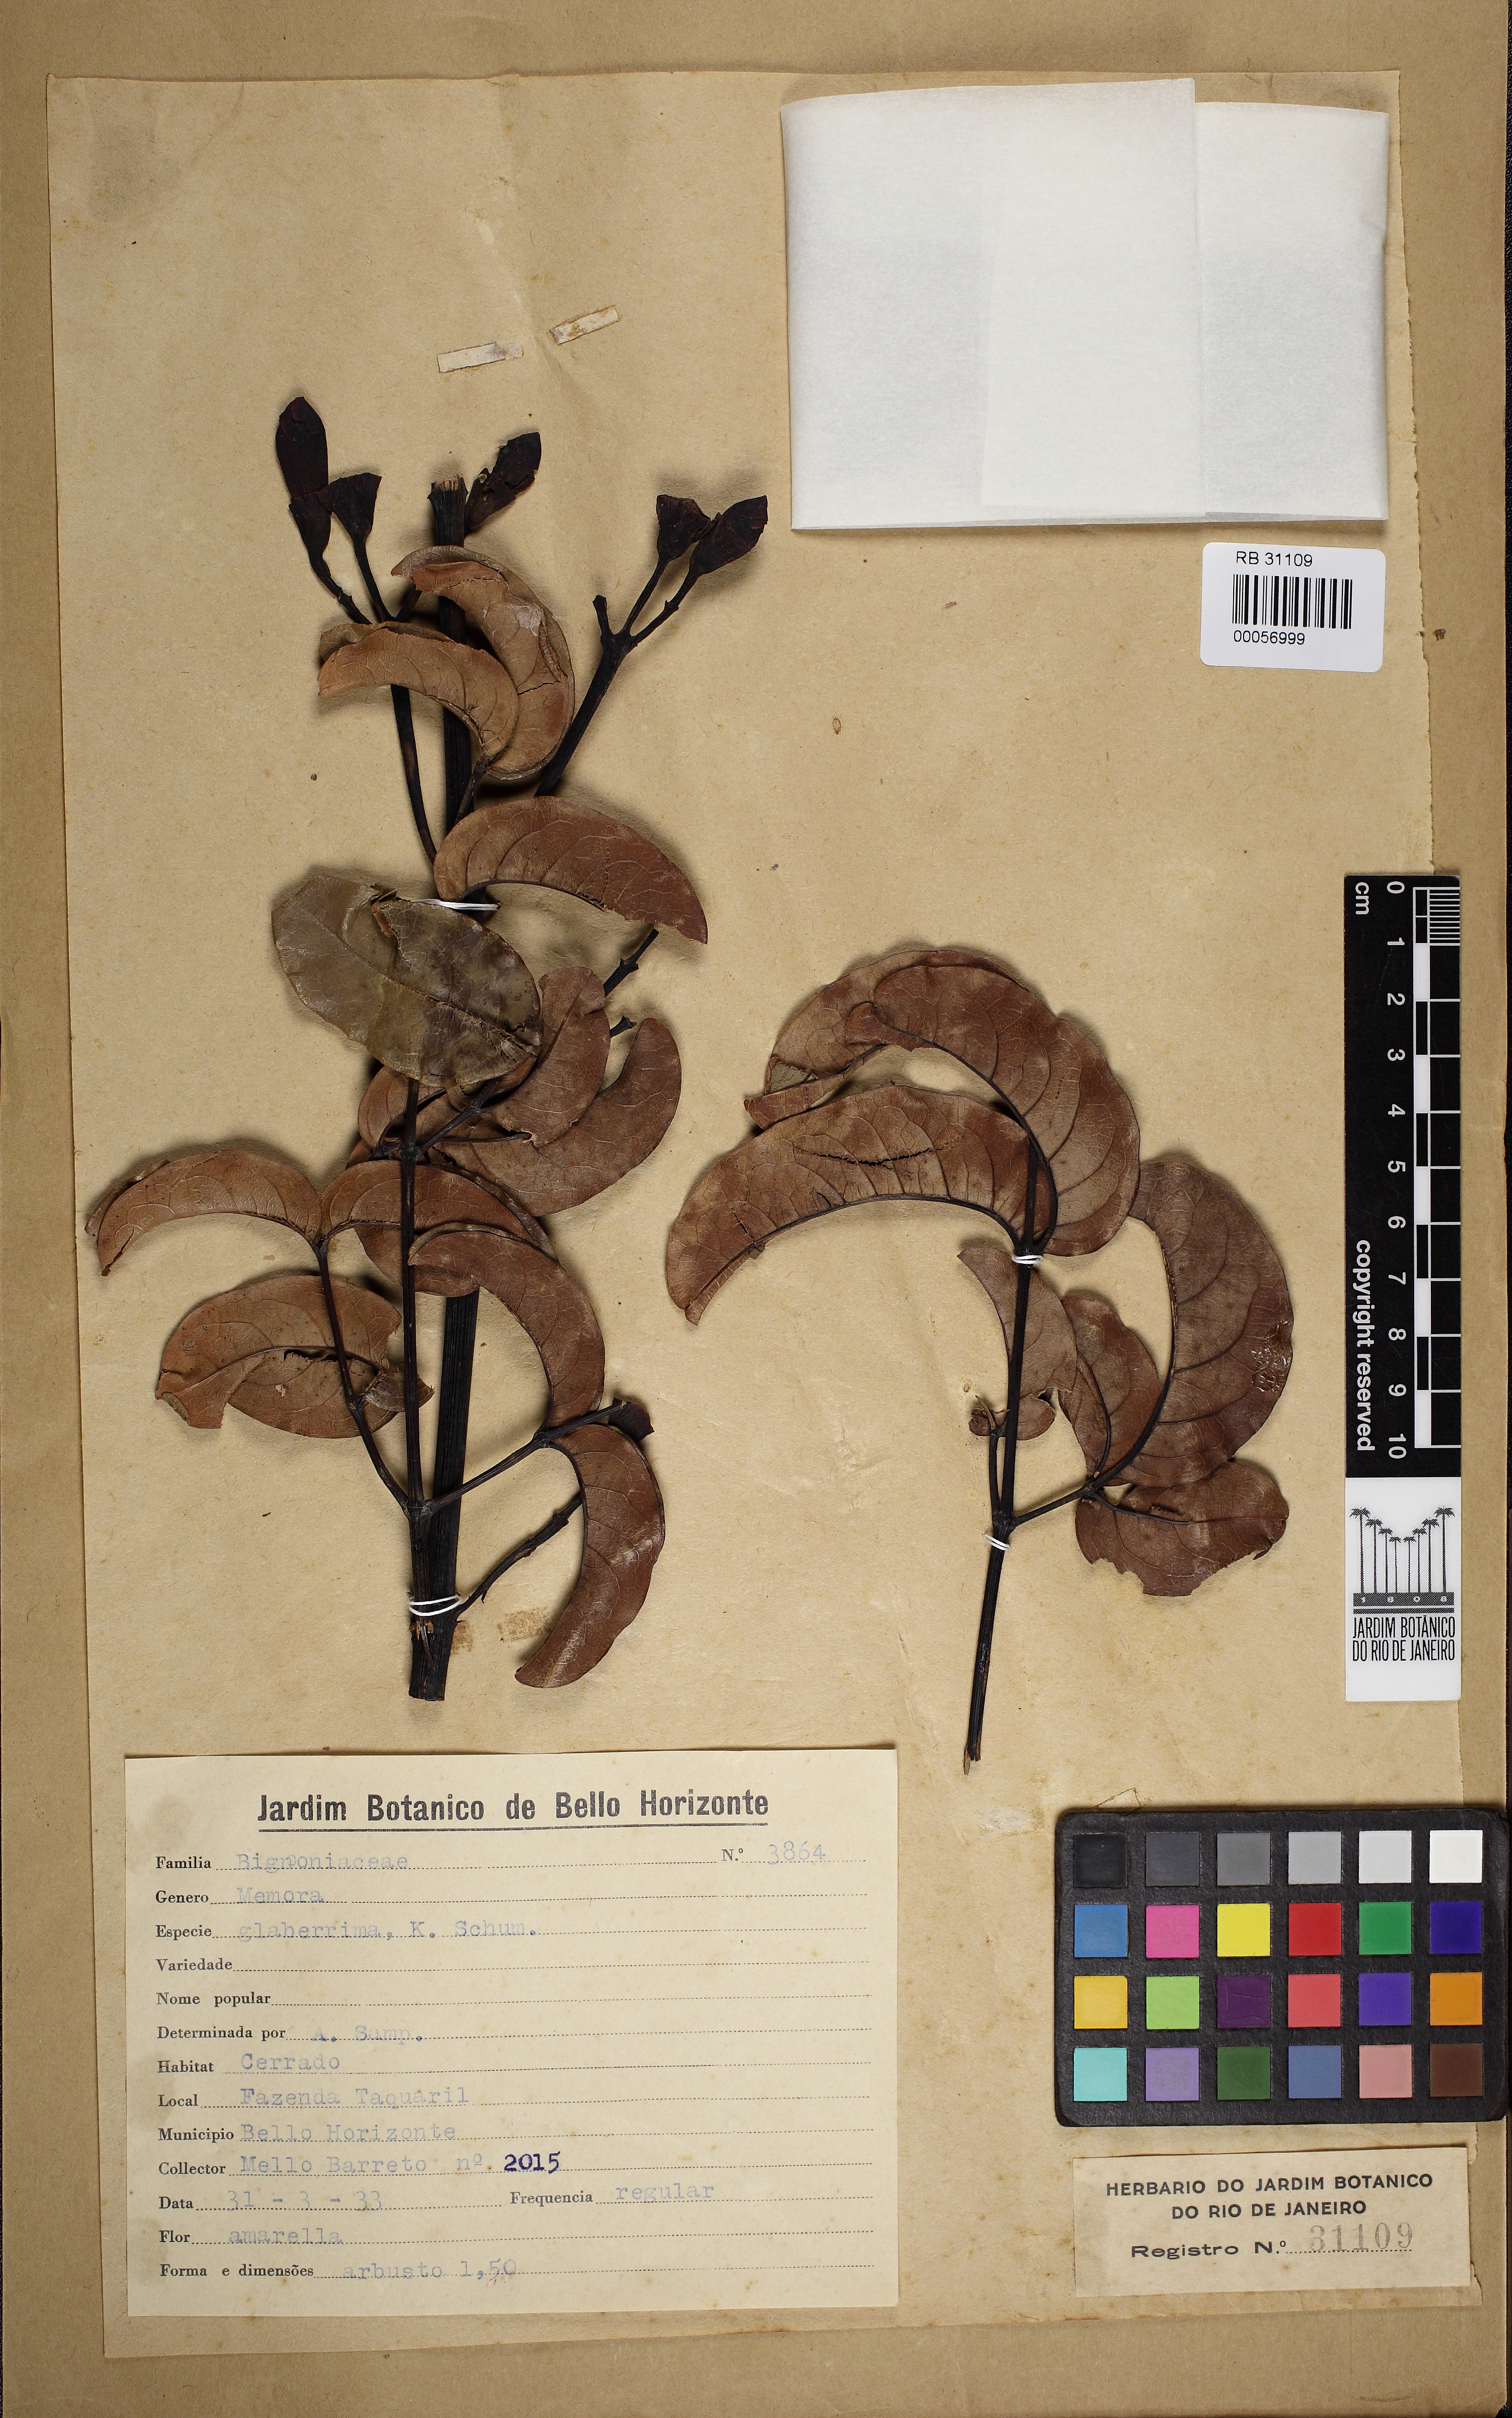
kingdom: Plantae
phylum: Tracheophyta
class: Magnoliopsida
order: Lamiales
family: Bignoniaceae
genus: Adenocalymma
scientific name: Adenocalymma pedunculatum
